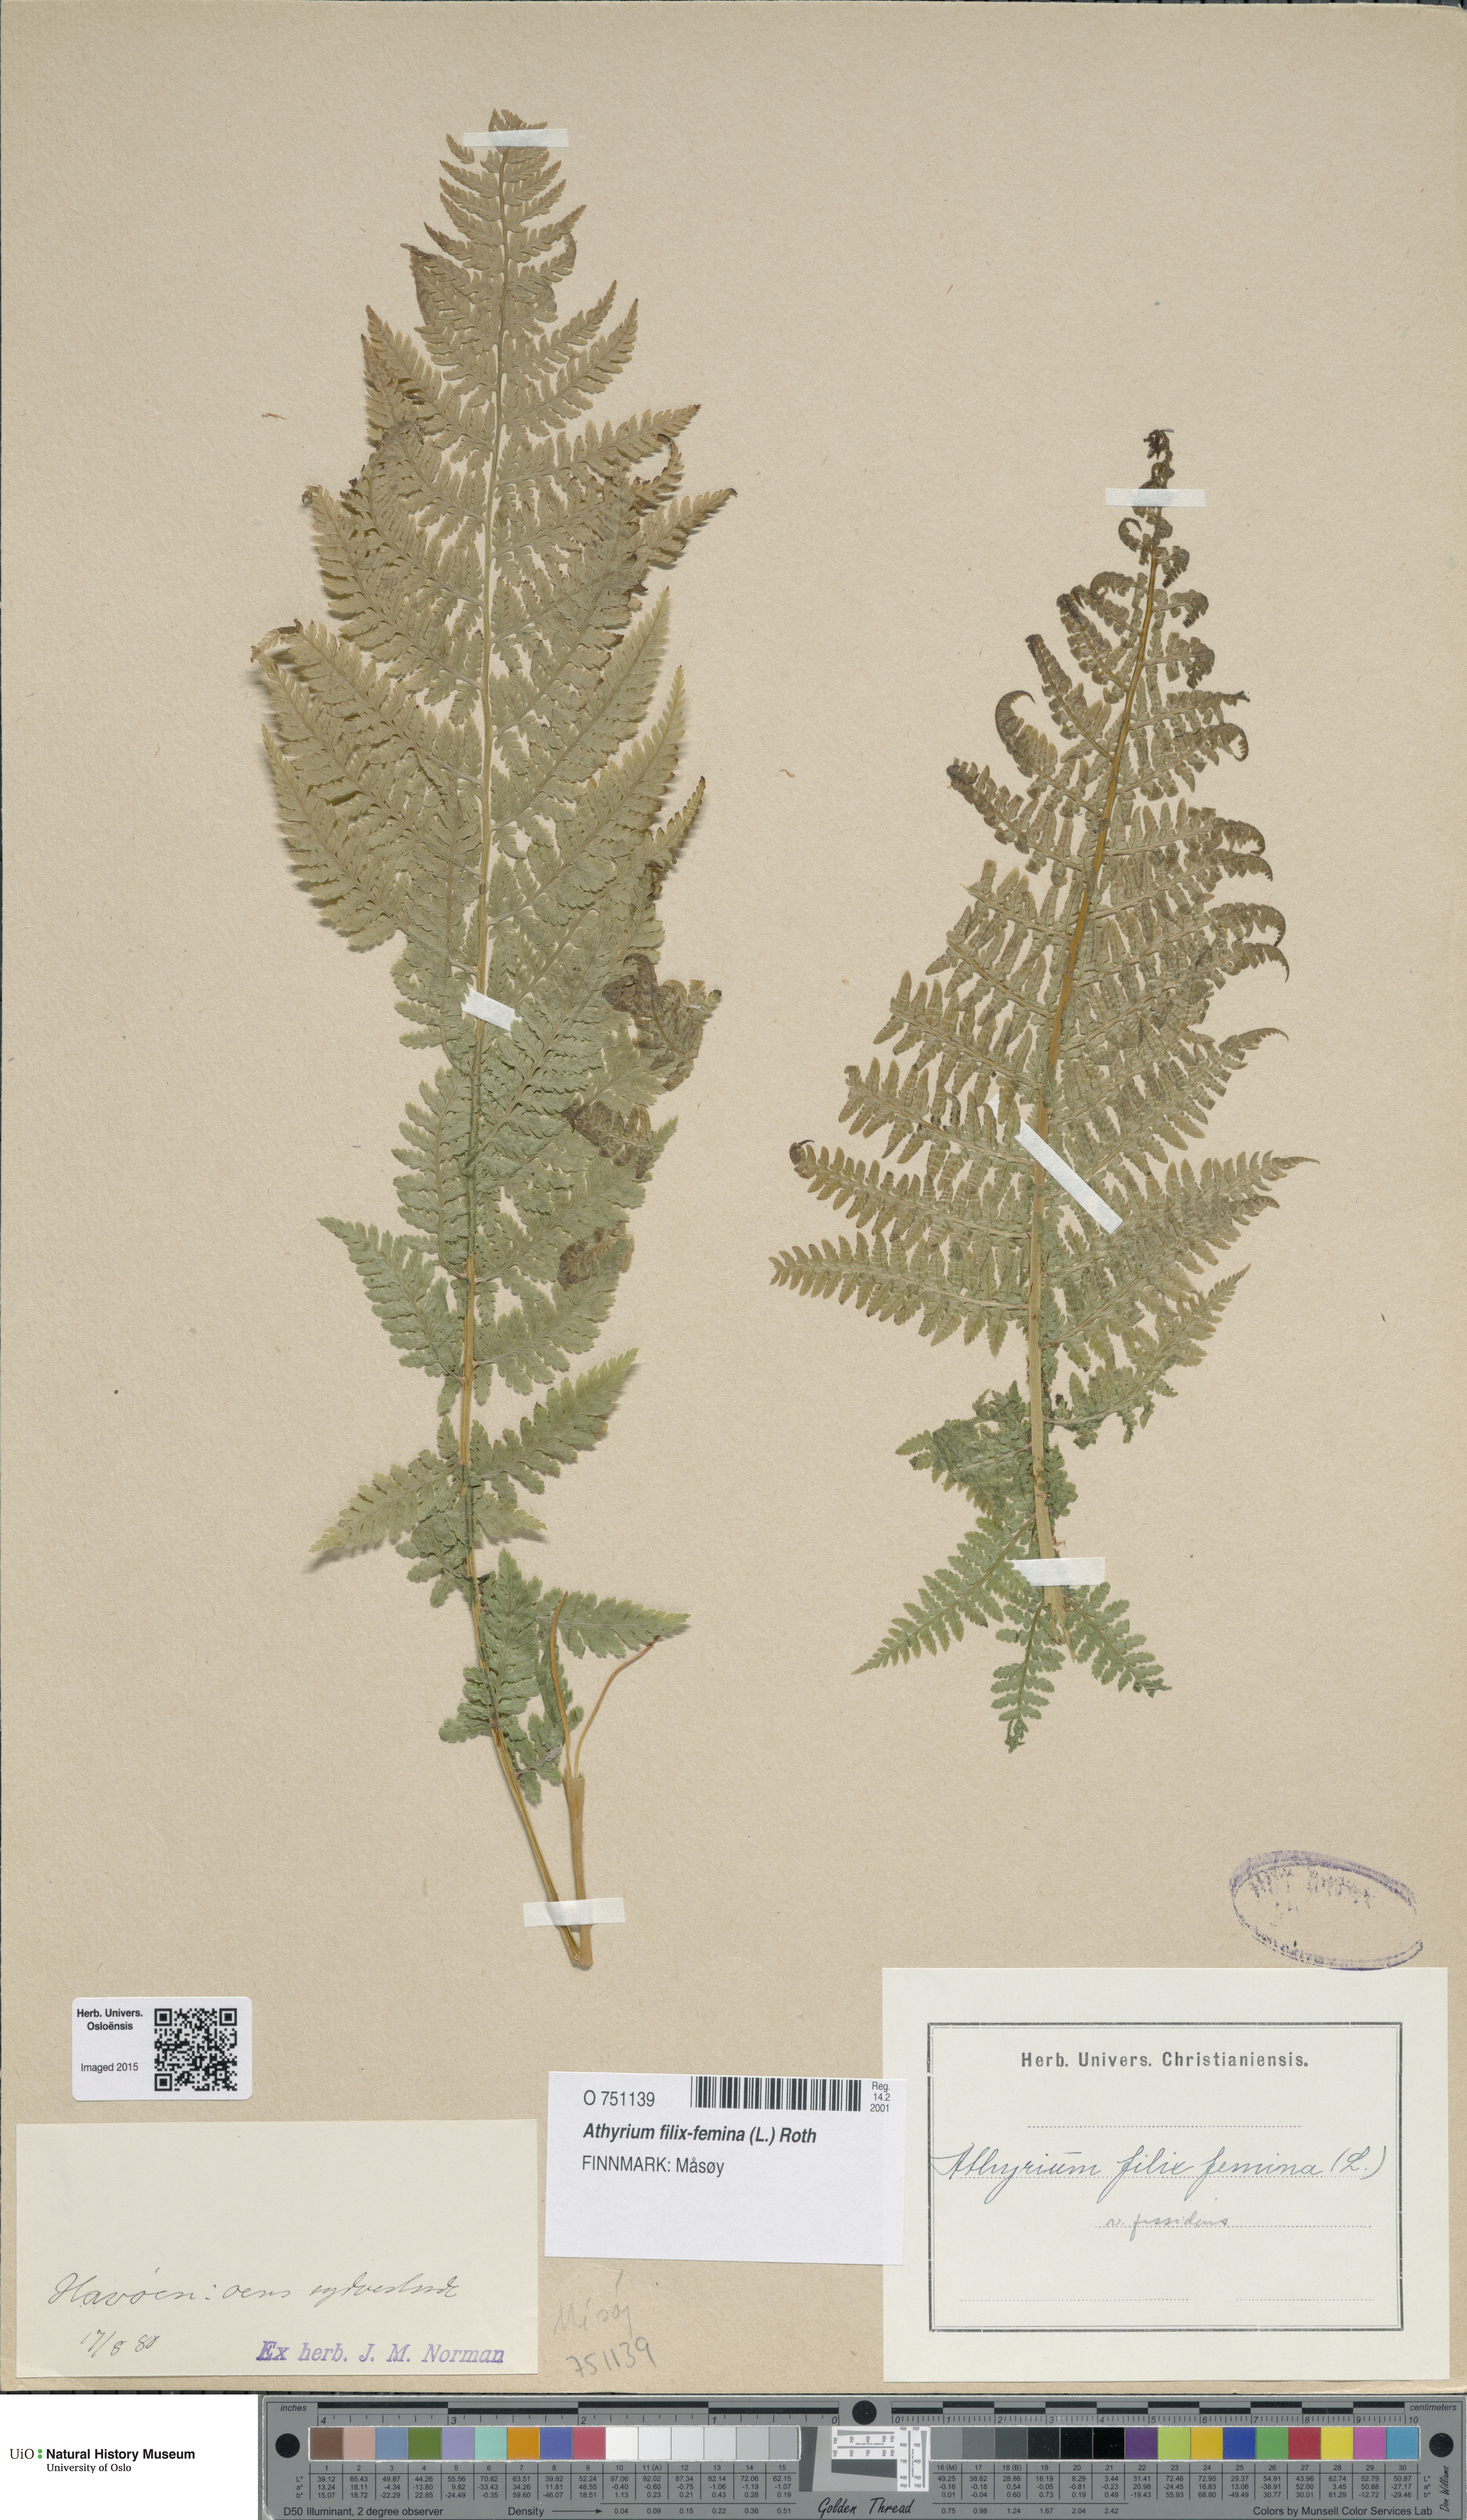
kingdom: Plantae
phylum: Tracheophyta
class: Polypodiopsida
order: Polypodiales
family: Athyriaceae
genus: Athyrium
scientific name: Athyrium filix-femina
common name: Lady fern
